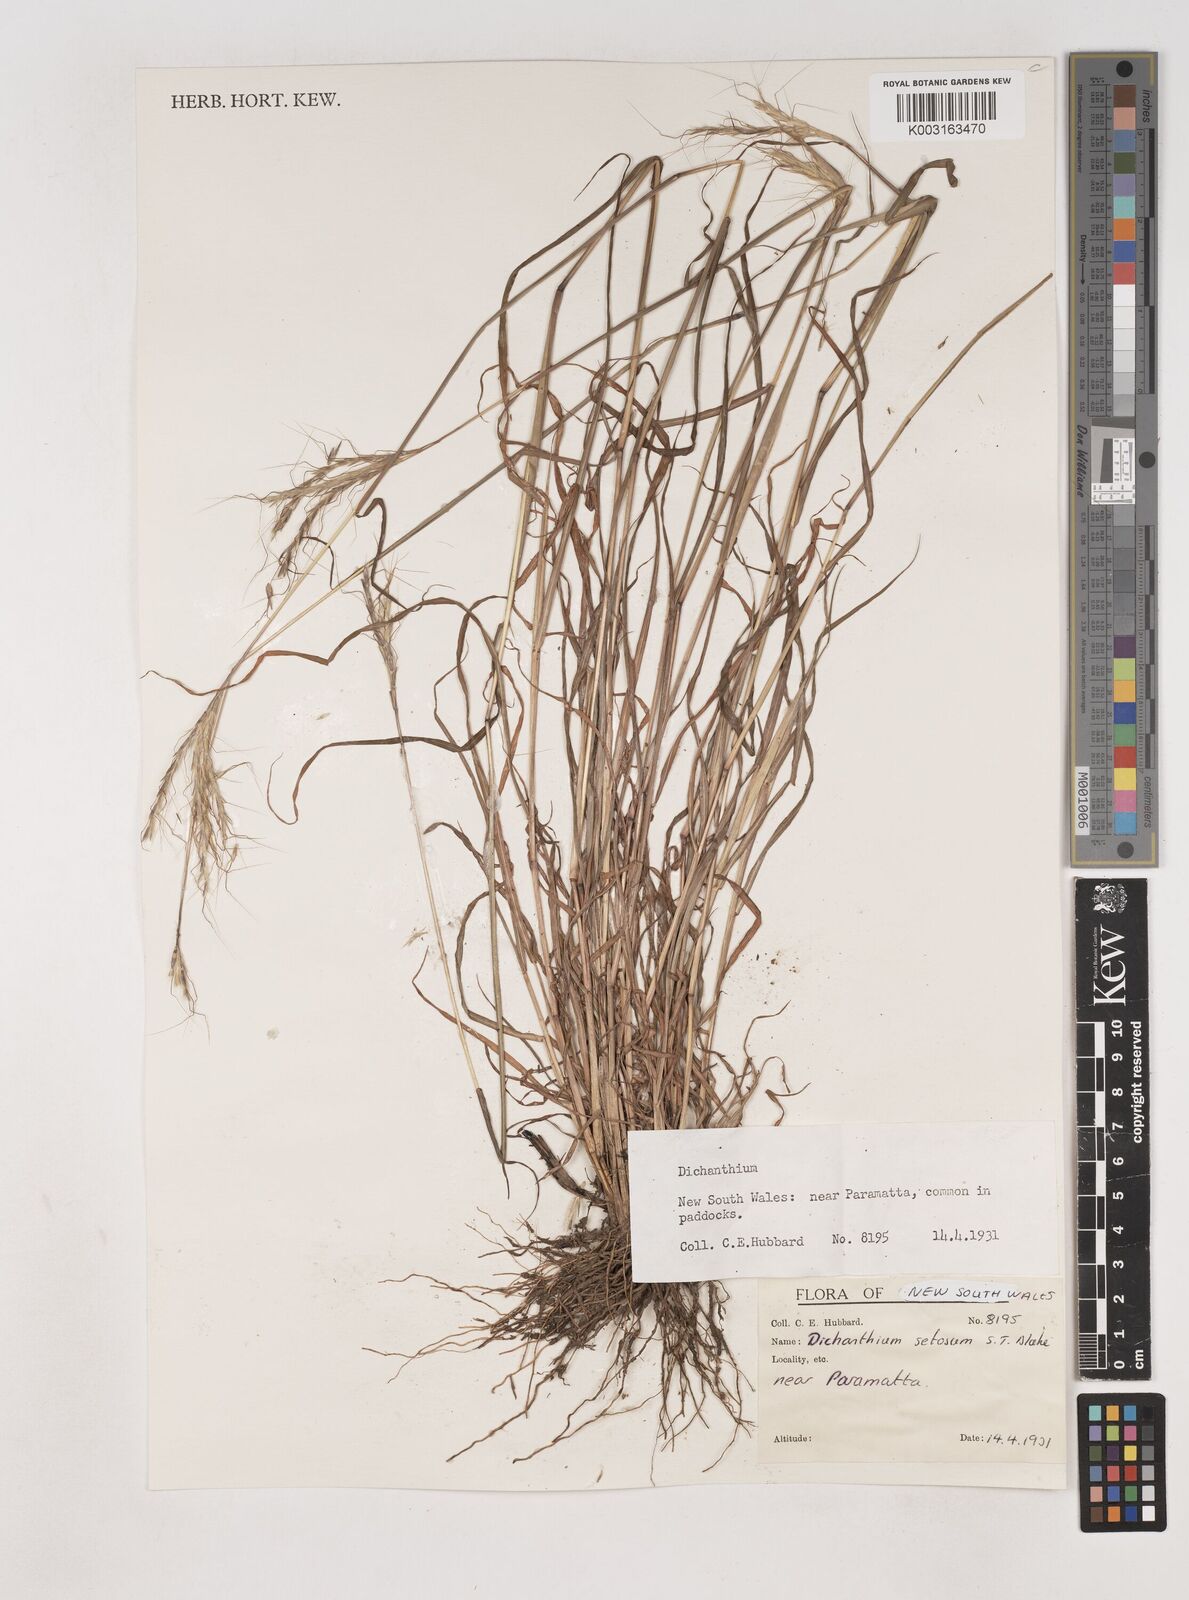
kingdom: Plantae
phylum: Tracheophyta
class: Liliopsida
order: Poales
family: Poaceae
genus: Dichanthium
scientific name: Dichanthium setosum
